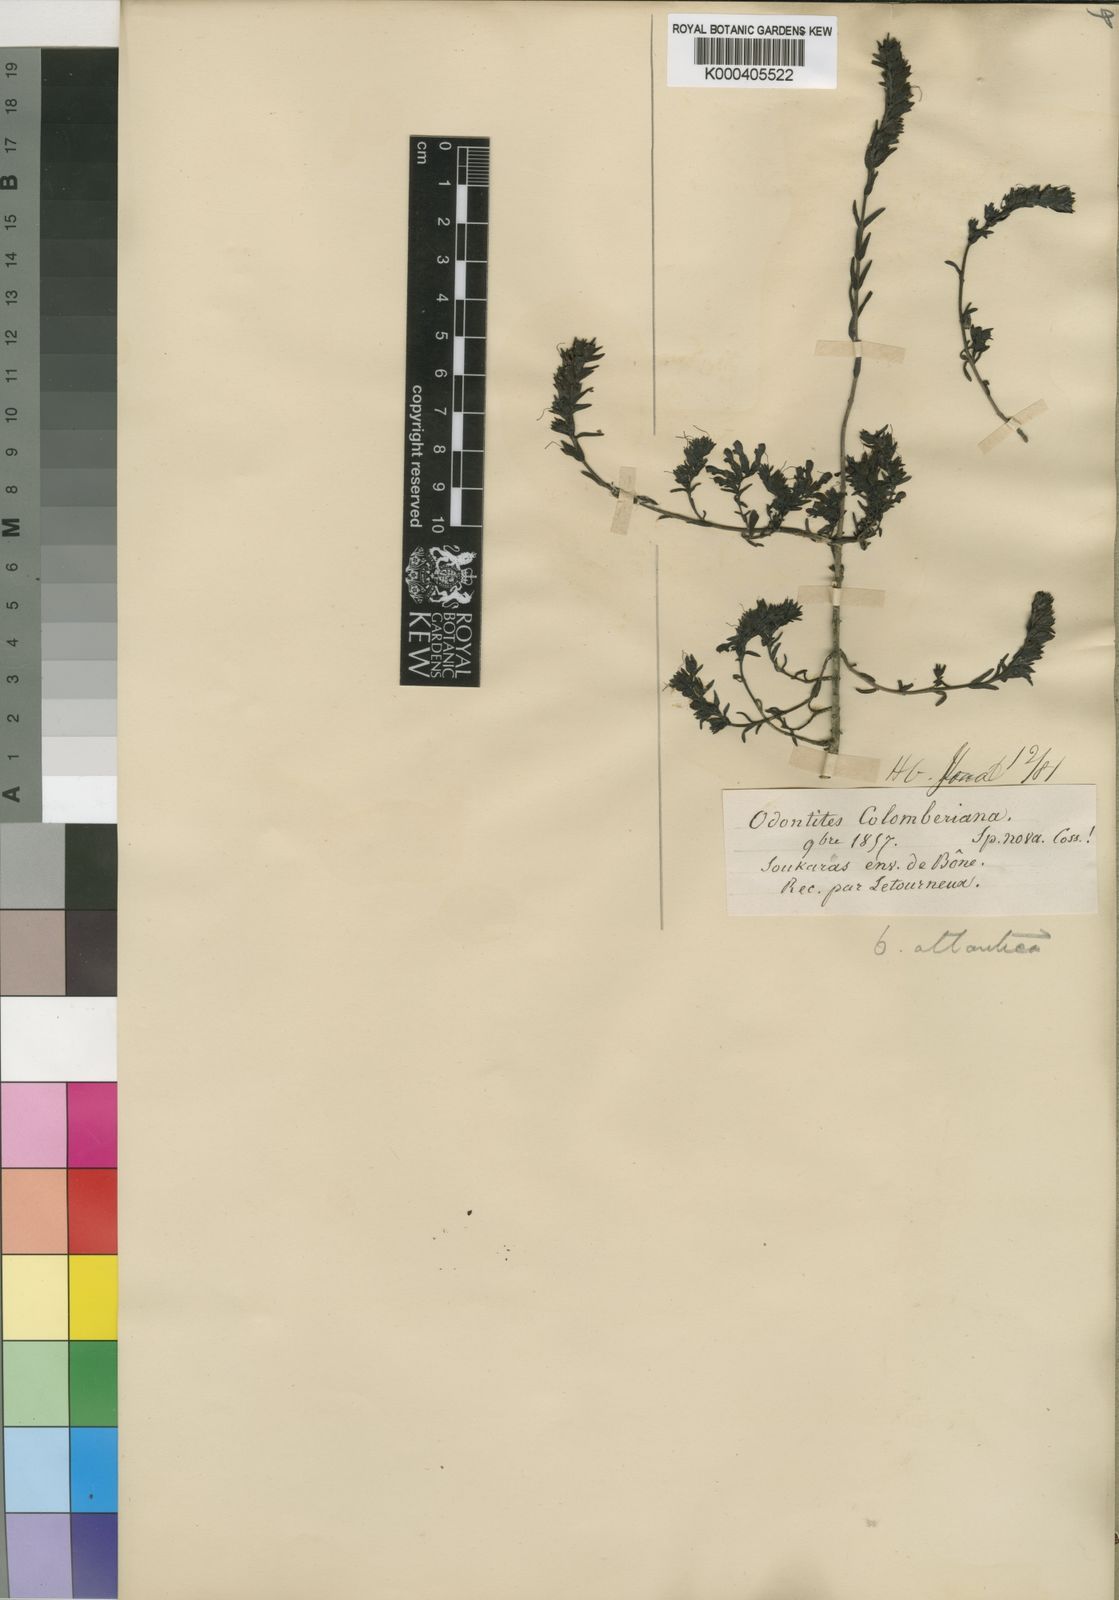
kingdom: Plantae
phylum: Tracheophyta
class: Magnoliopsida
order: Lamiales
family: Orobanchaceae
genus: Odontites
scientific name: Odontites rigidifolius
